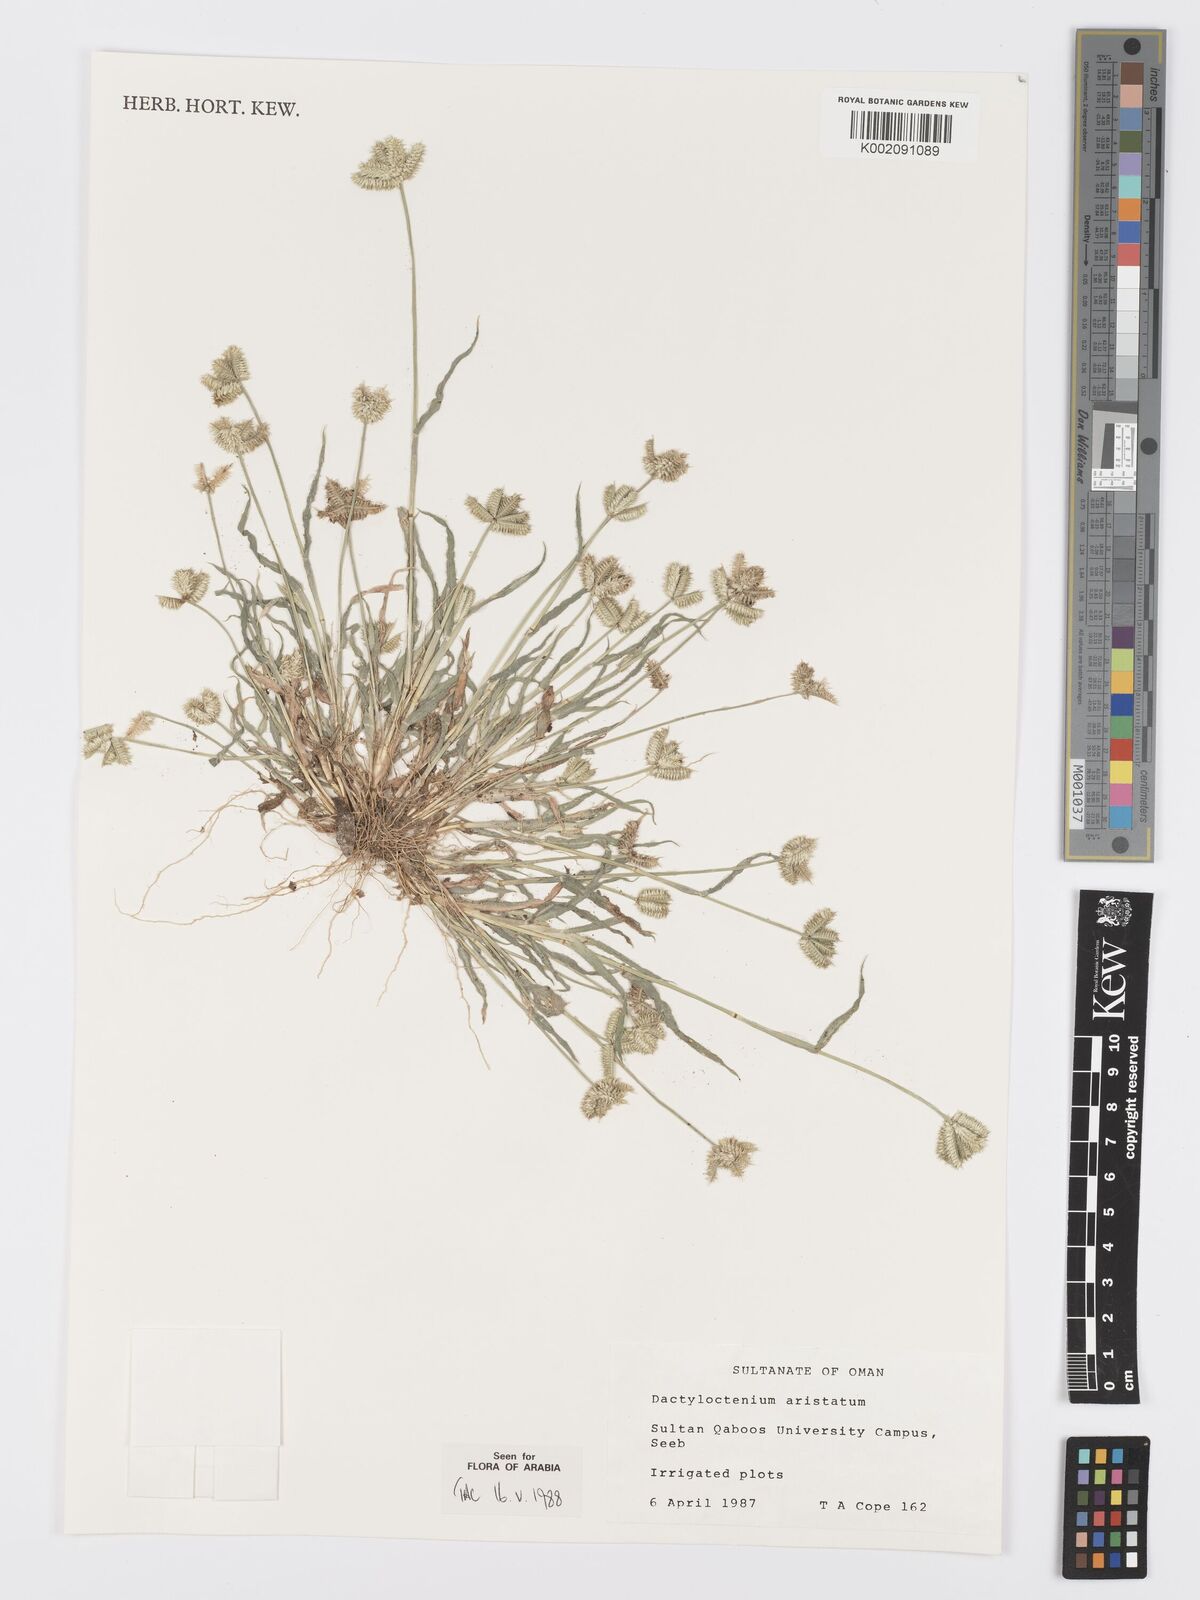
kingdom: Plantae
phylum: Tracheophyta
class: Liliopsida
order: Poales
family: Poaceae
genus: Dactyloctenium
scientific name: Dactyloctenium aristatum
